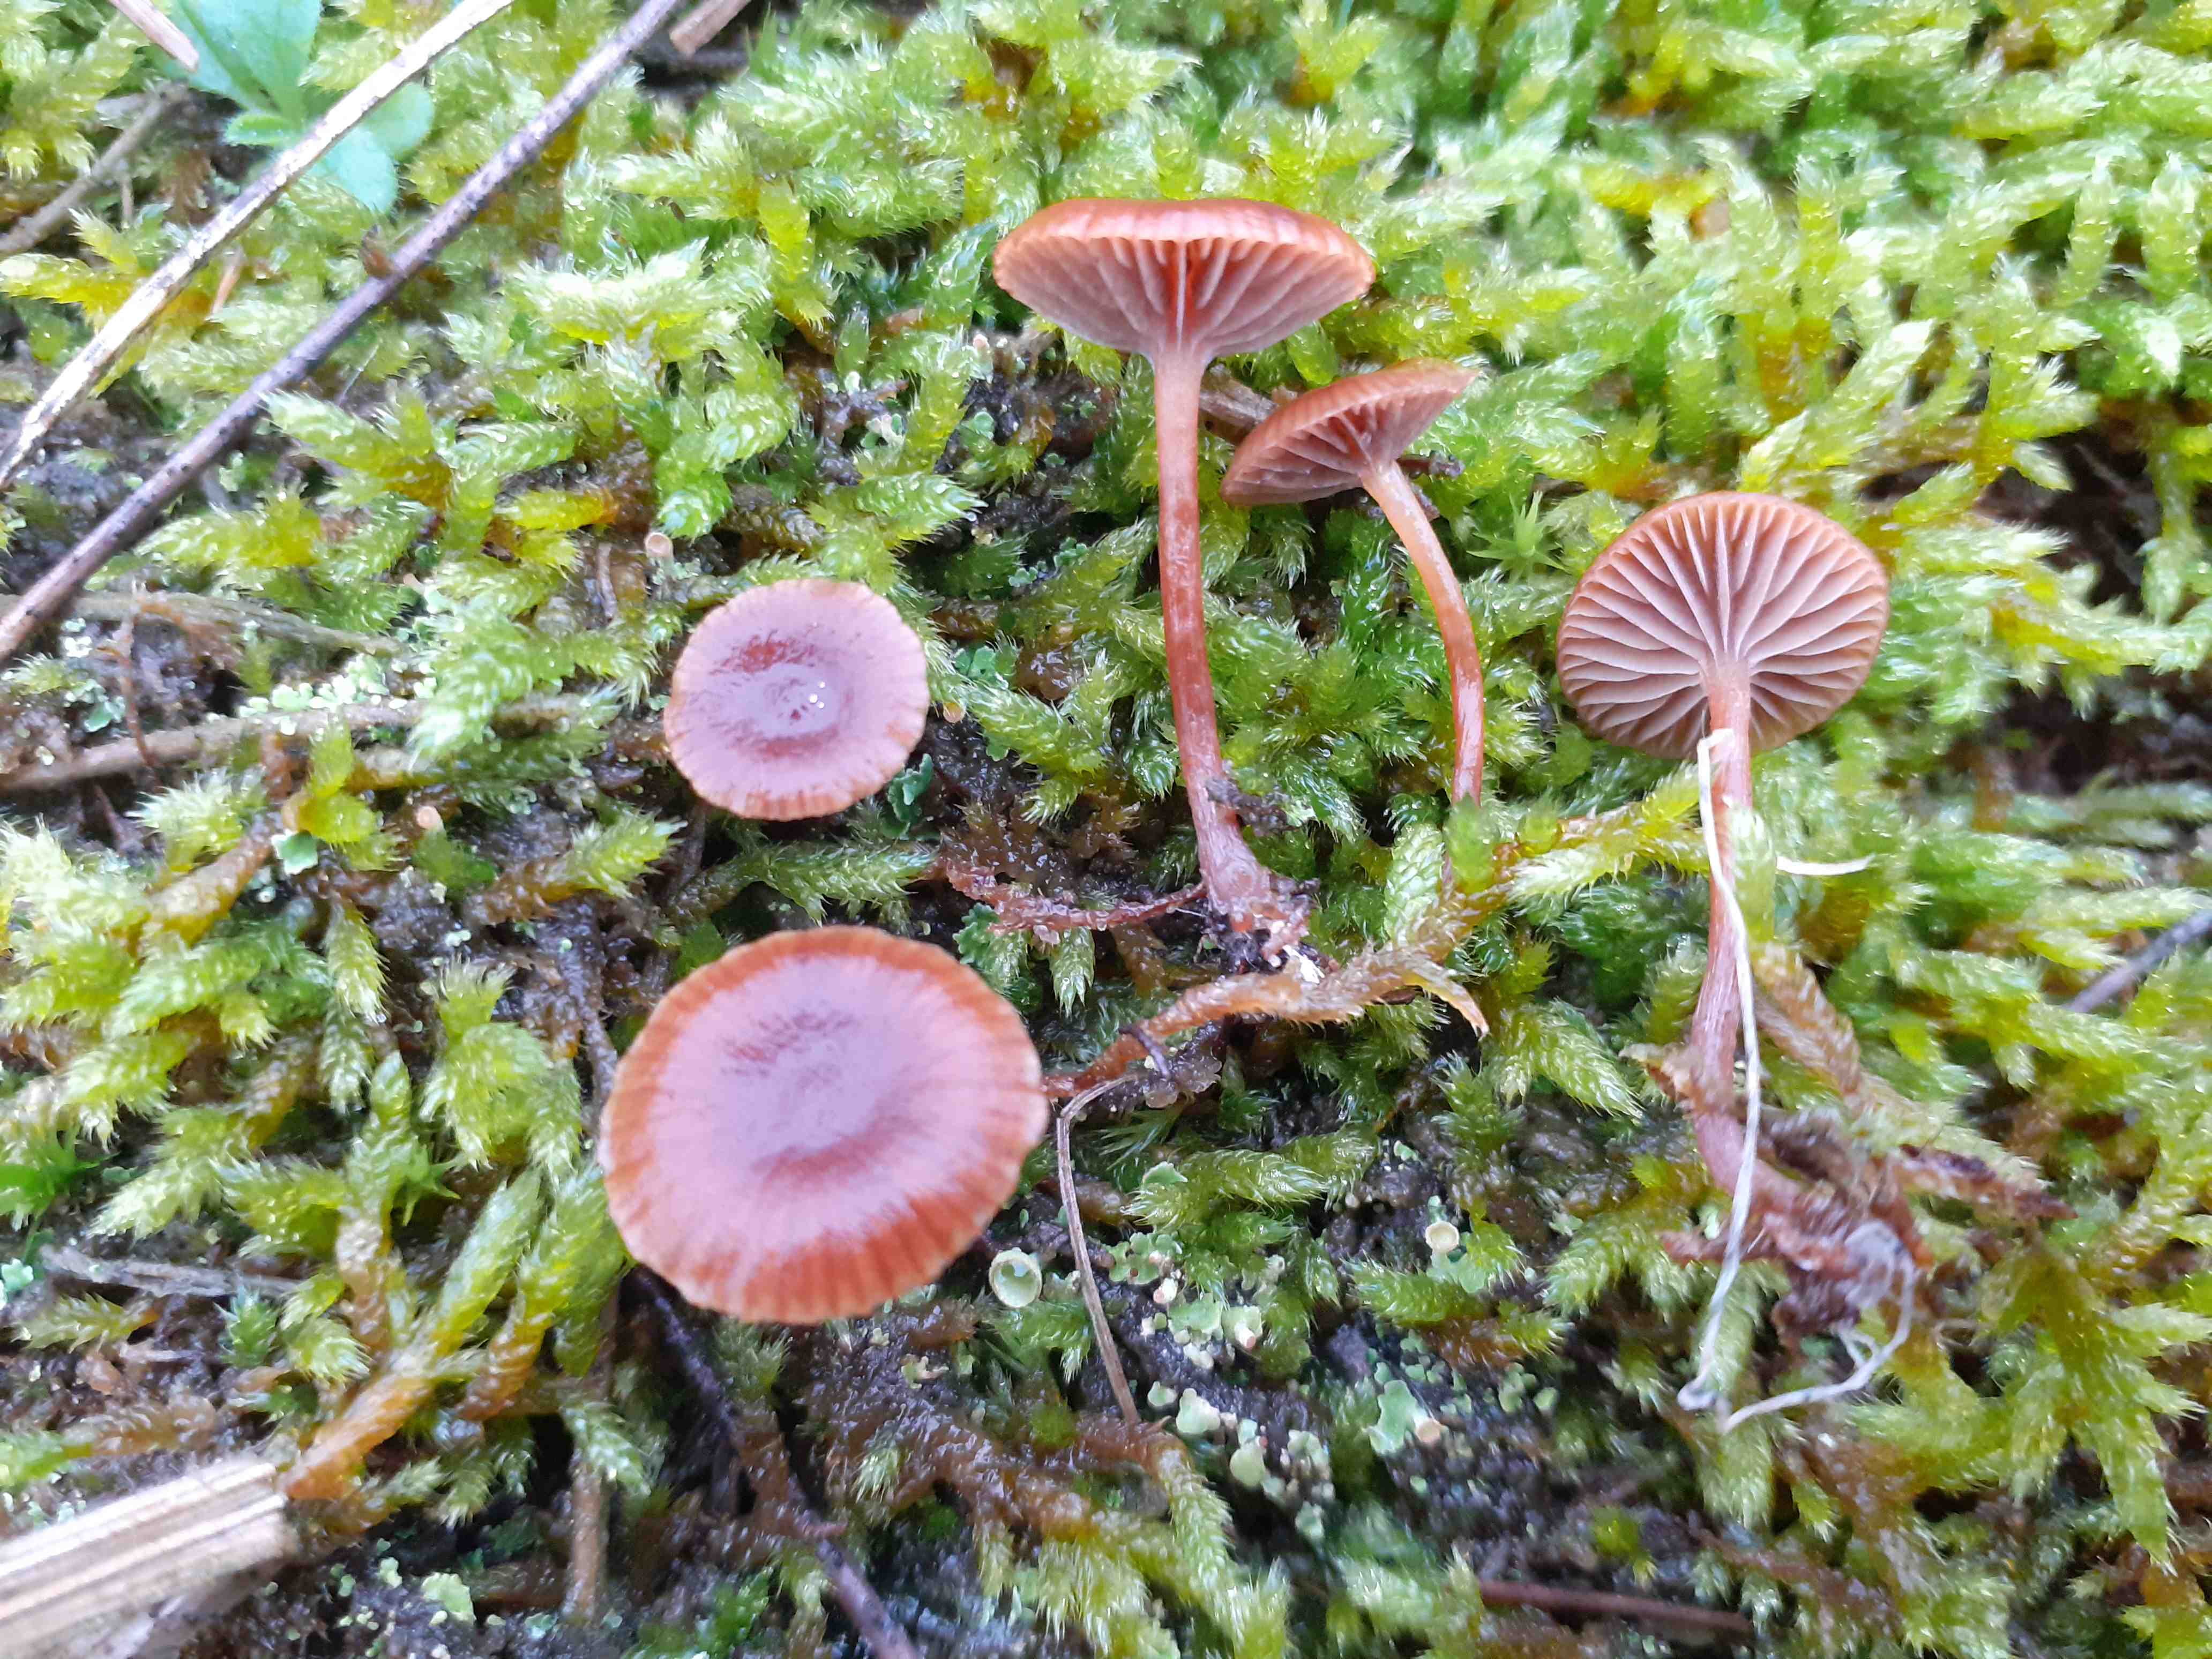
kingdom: Fungi
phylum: Basidiomycota
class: Agaricomycetes
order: Agaricales
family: Strophariaceae
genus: Deconica
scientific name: Deconica montana
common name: rødbrun stråhat
